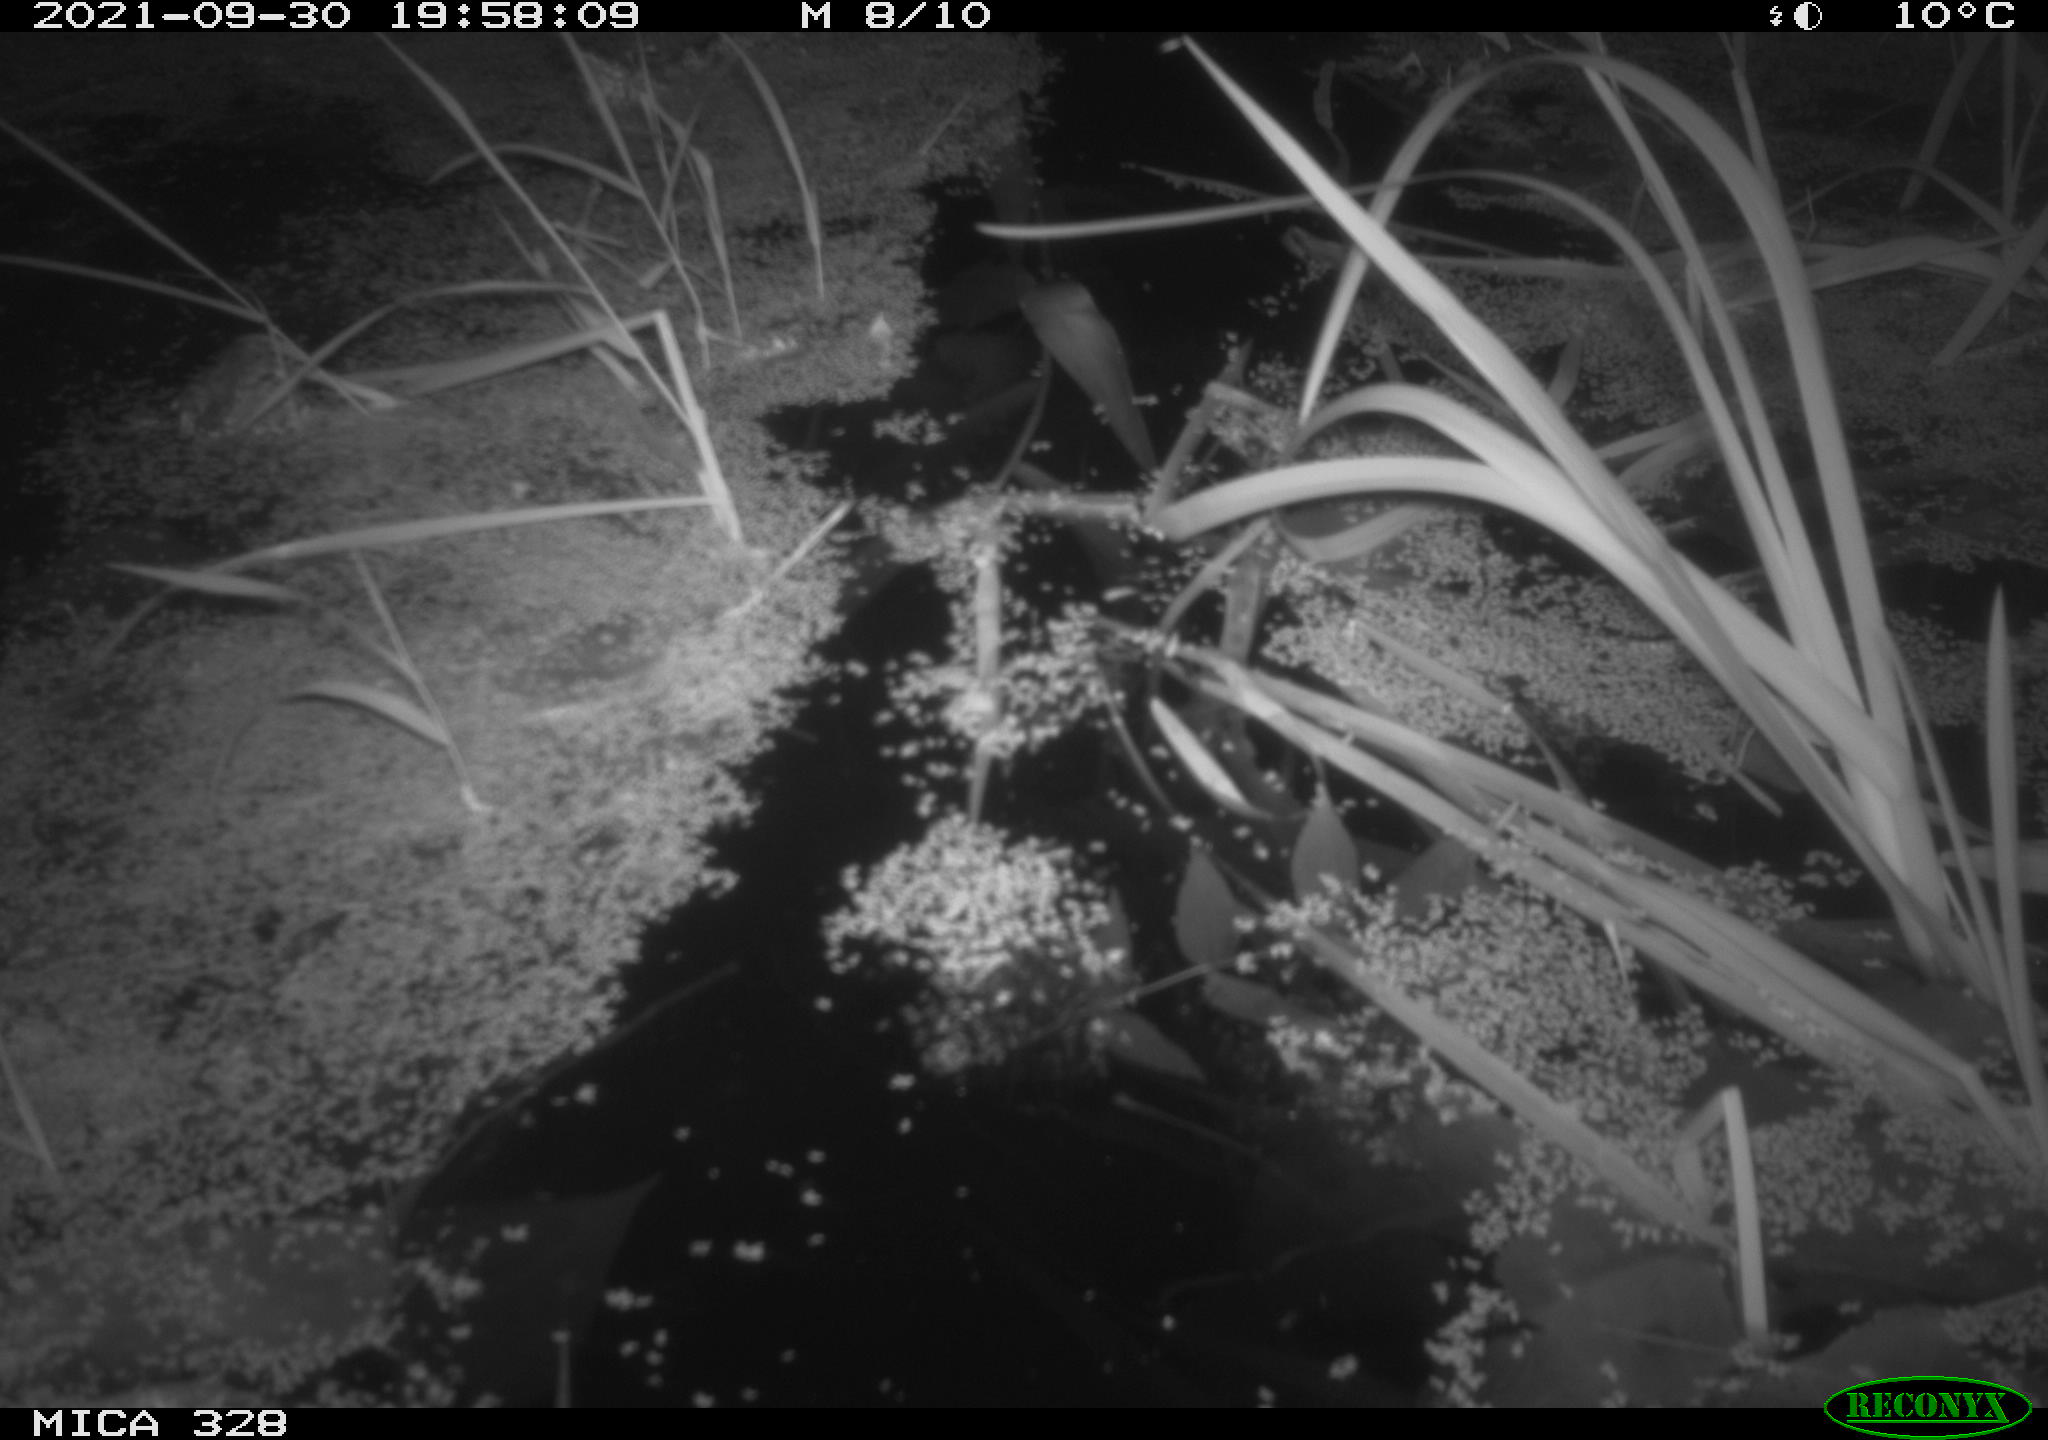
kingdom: Animalia
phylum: Chordata
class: Mammalia
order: Rodentia
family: Cricetidae
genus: Ondatra
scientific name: Ondatra zibethicus
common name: Muskrat
